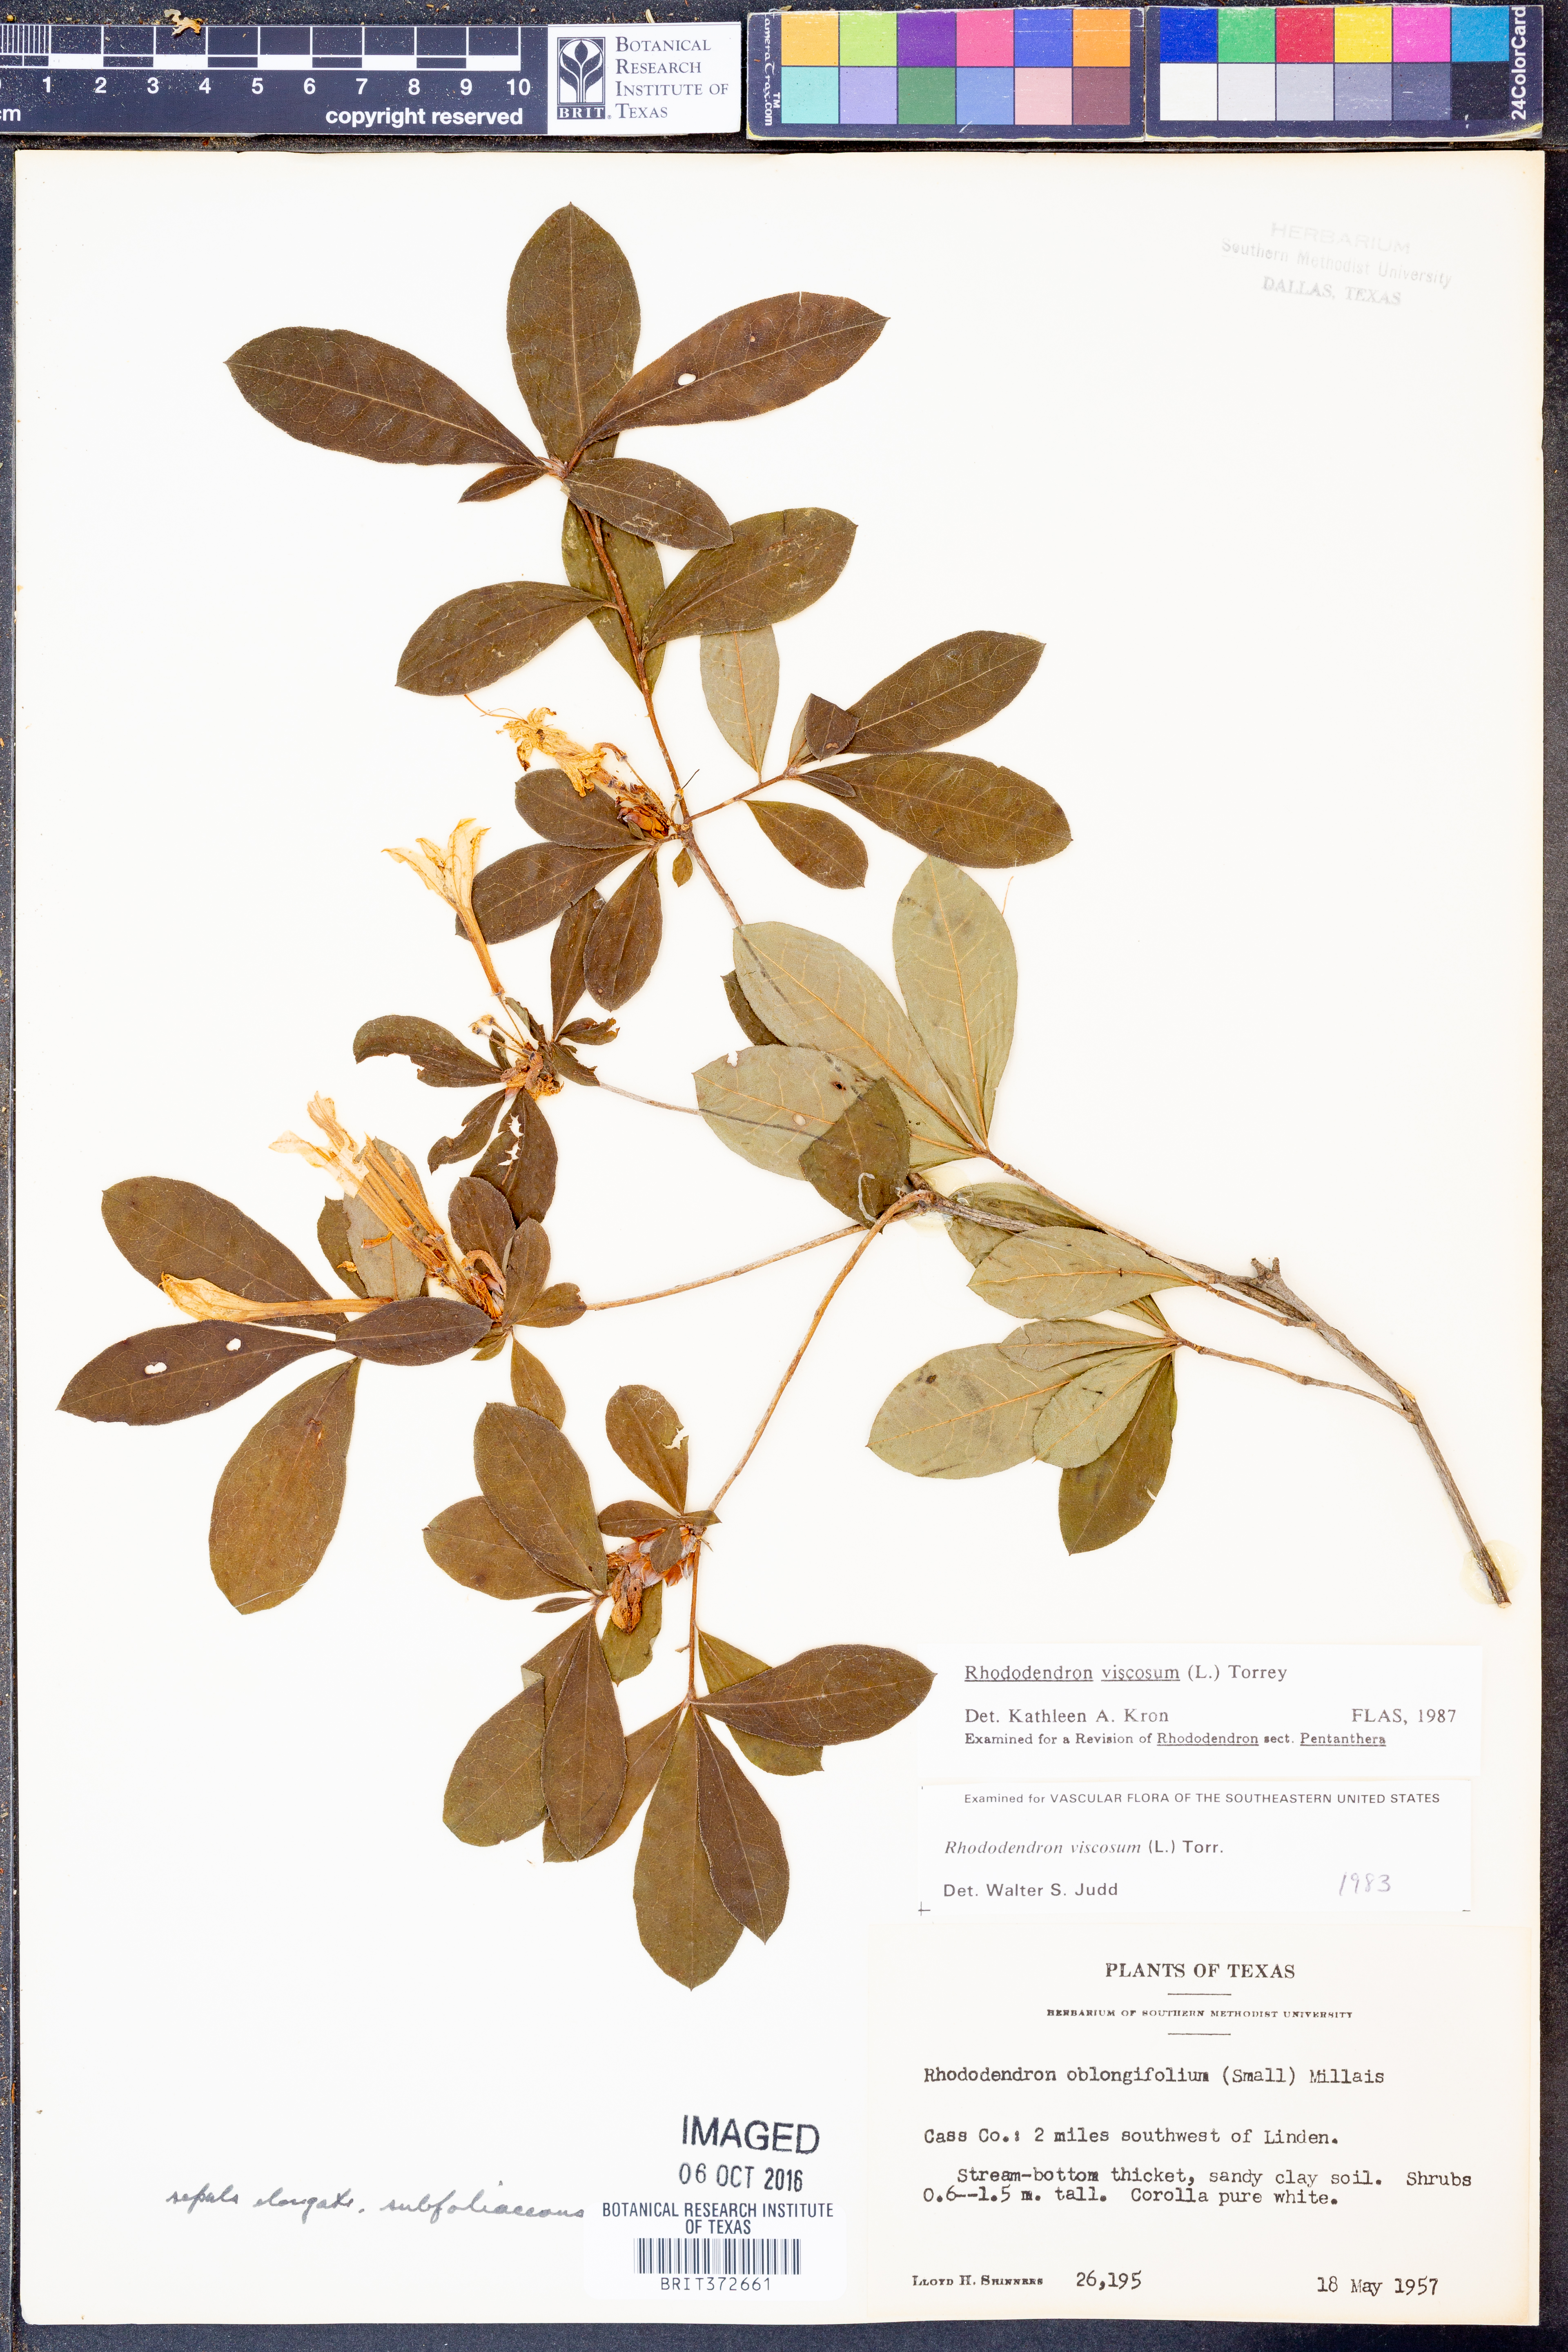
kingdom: Plantae
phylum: Tracheophyta
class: Magnoliopsida
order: Ericales
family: Ericaceae
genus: Rhododendron
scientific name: Rhododendron viscosum
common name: Clammy azalea
